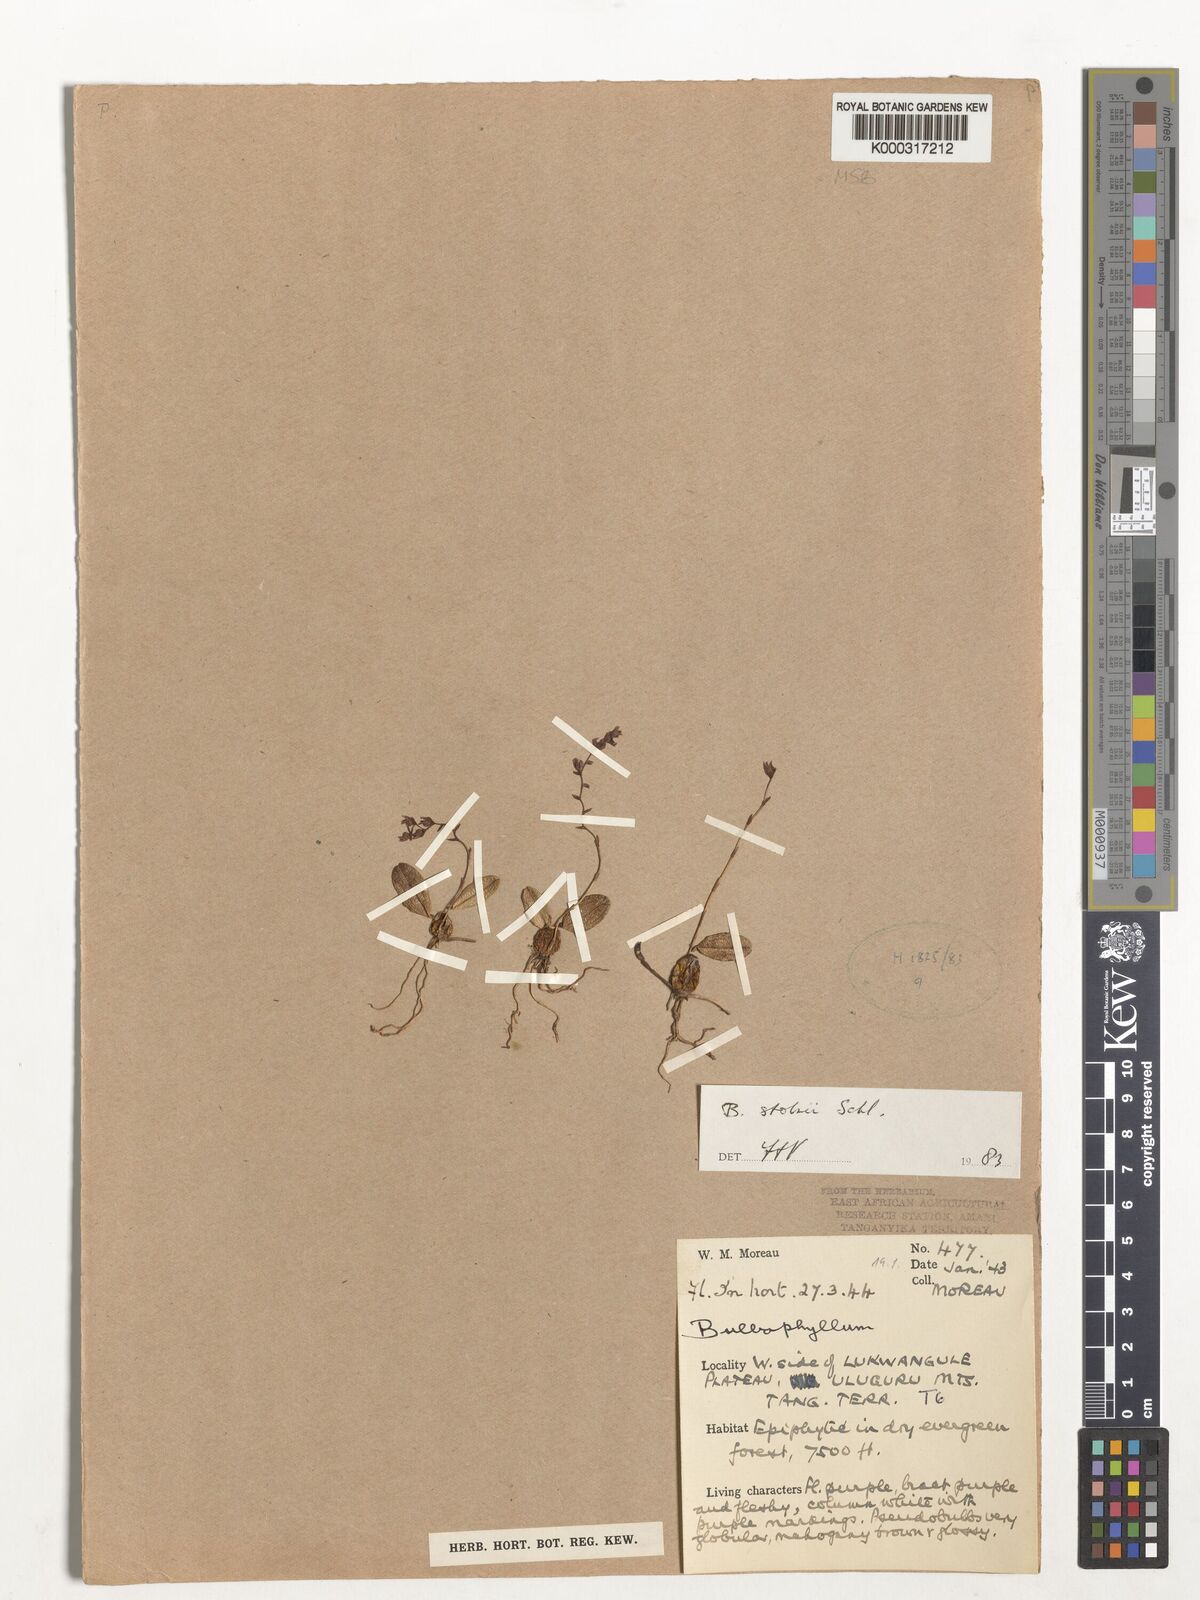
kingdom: Plantae
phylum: Tracheophyta
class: Liliopsida
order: Asparagales
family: Orchidaceae
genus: Bulbophyllum
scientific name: Bulbophyllum stolzii
